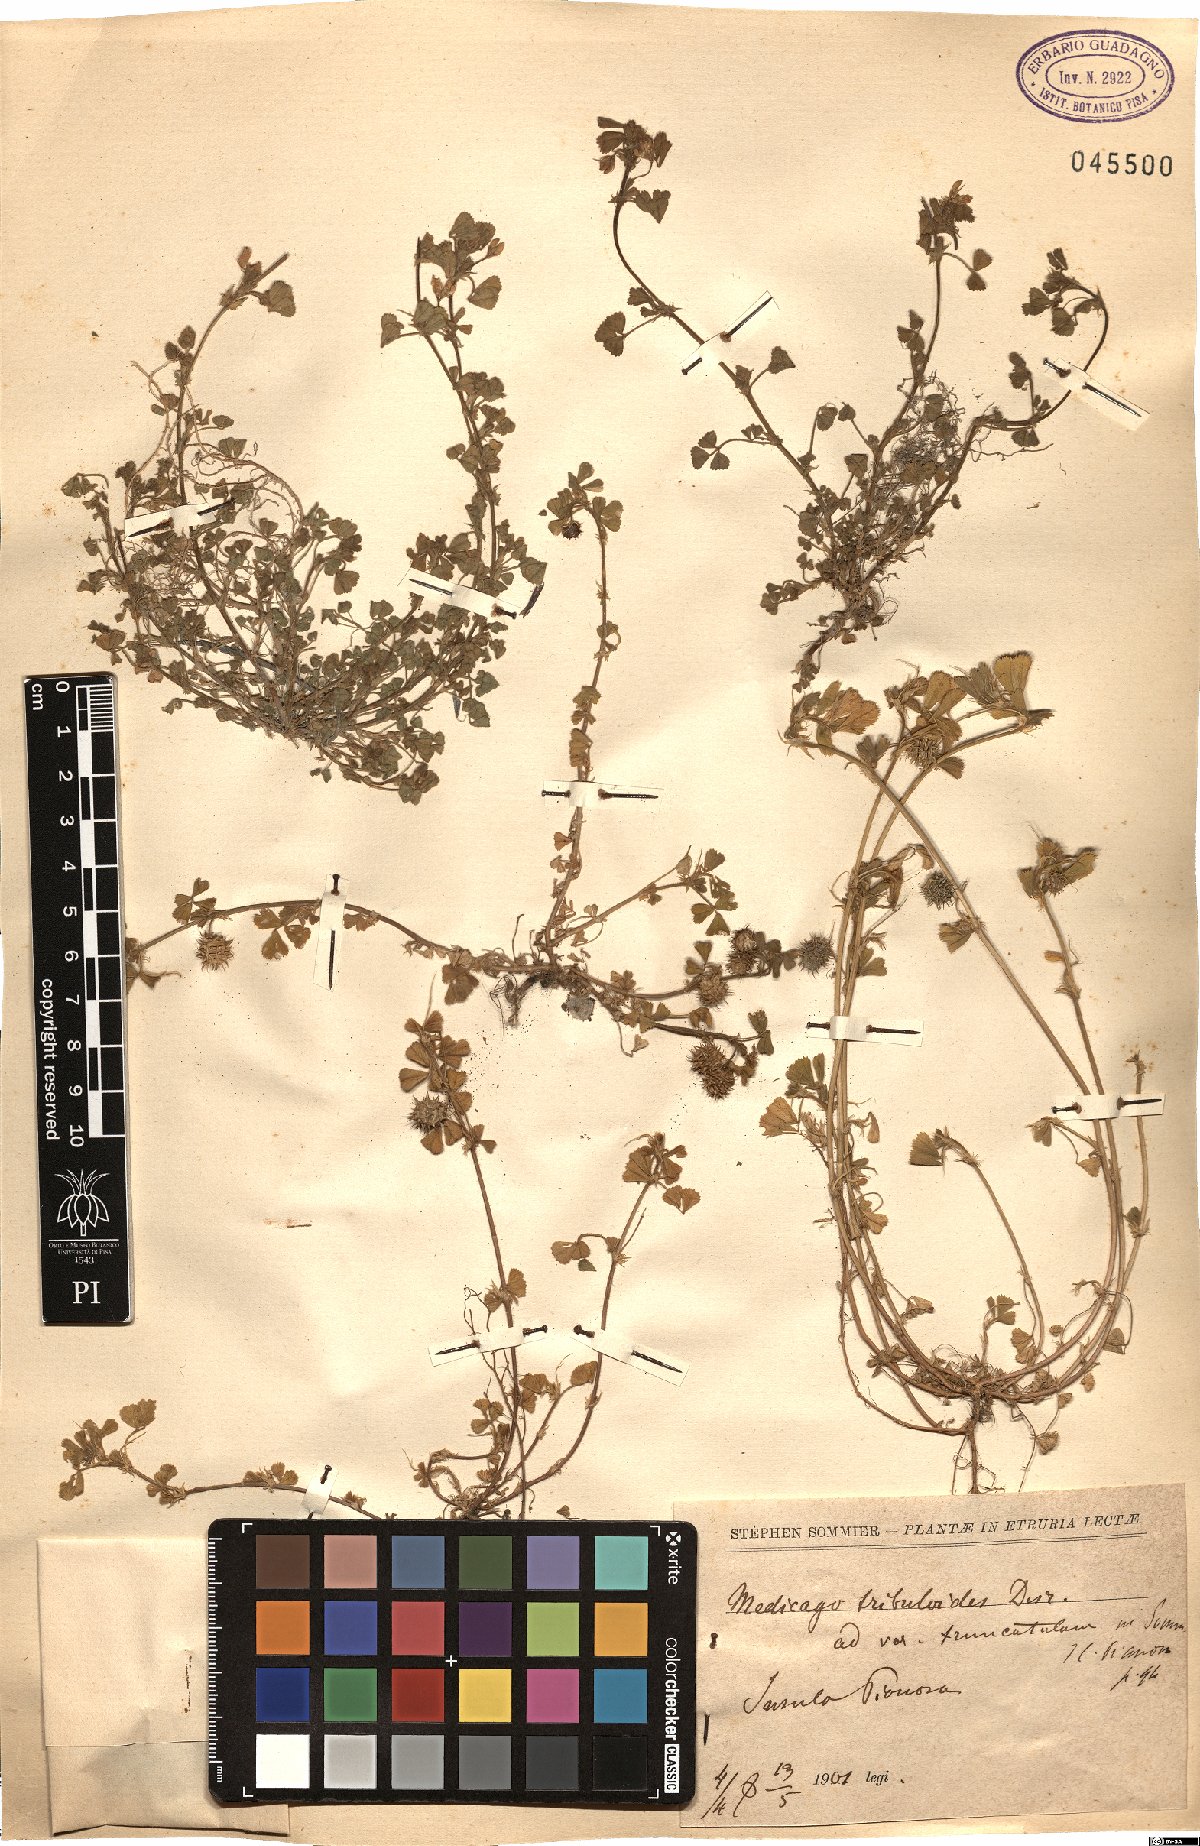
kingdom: Plantae
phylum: Tracheophyta
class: Magnoliopsida
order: Fabales
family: Fabaceae
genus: Medicago
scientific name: Medicago truncatula
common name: Strong-spined medick
